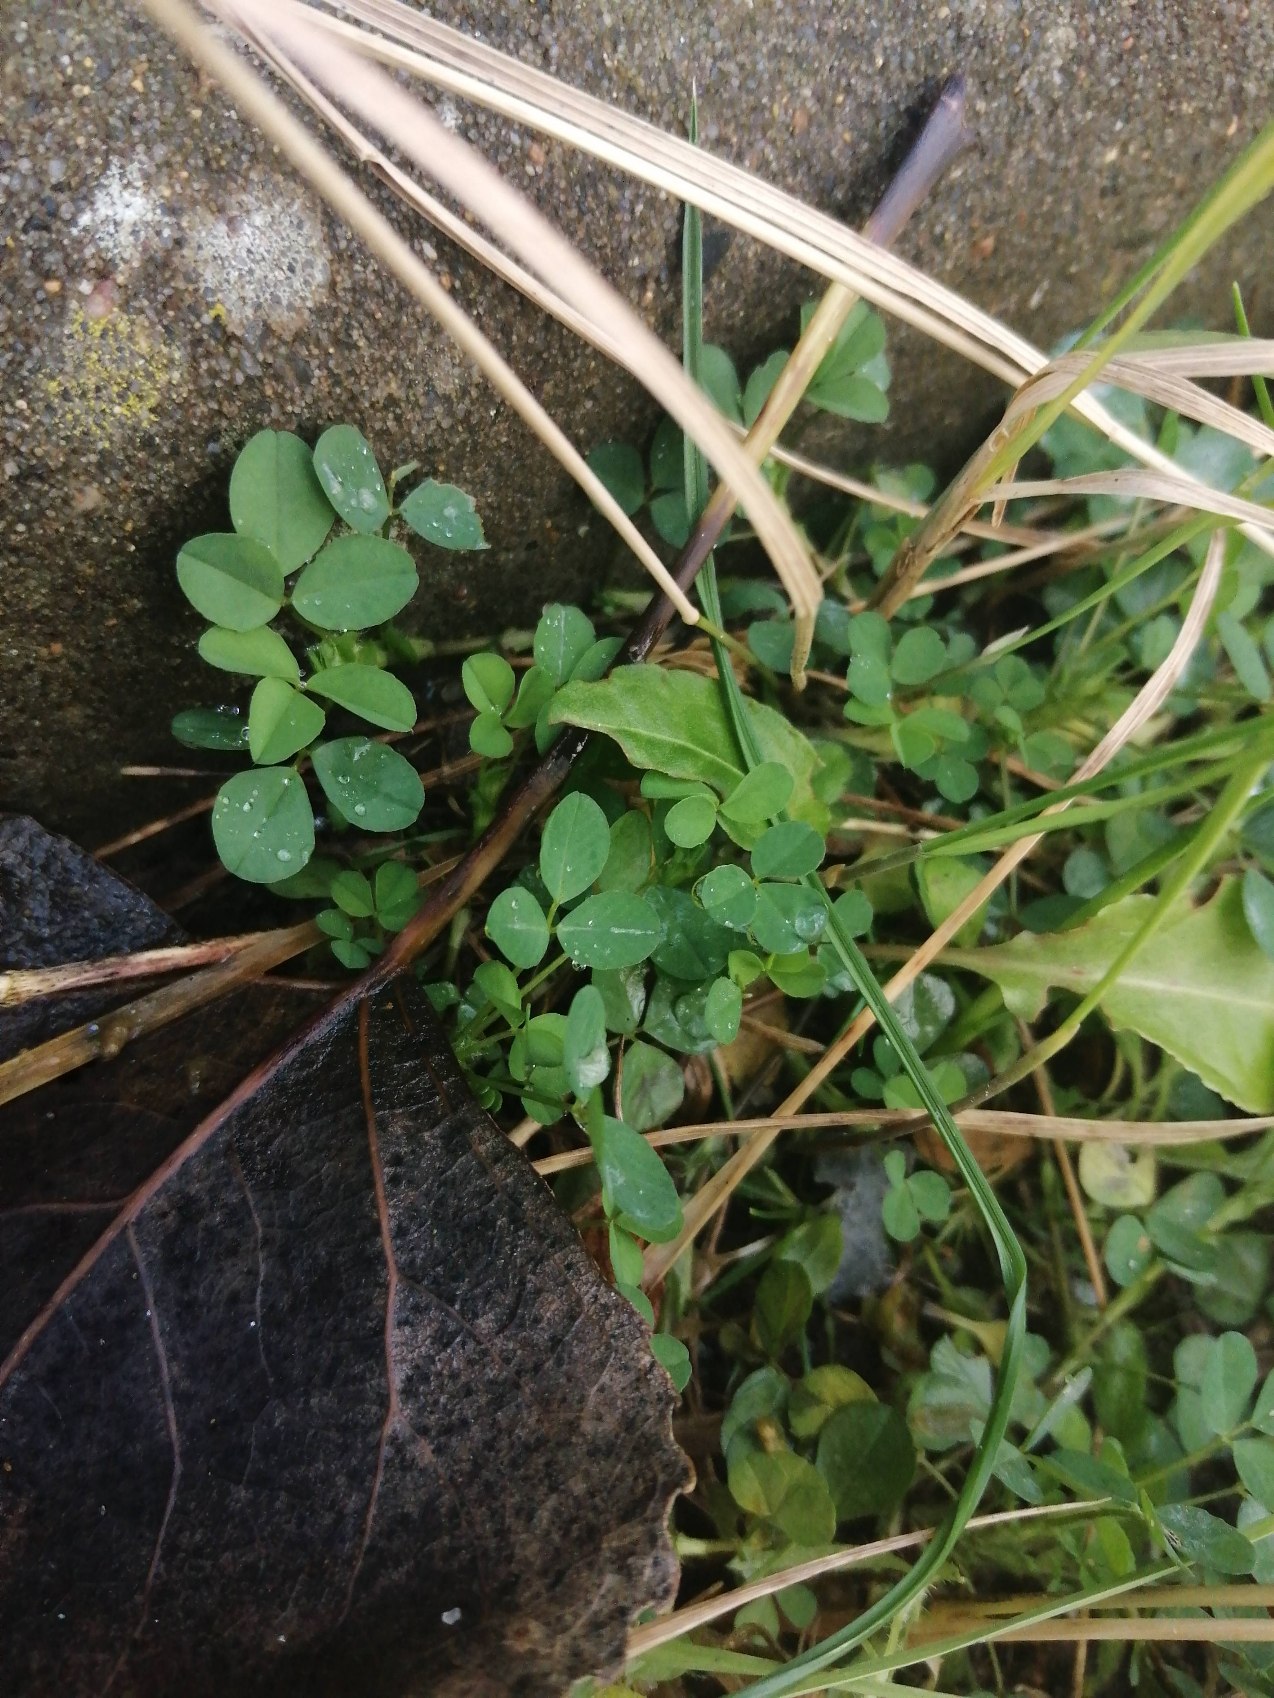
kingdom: Plantae
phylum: Tracheophyta
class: Magnoliopsida
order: Fabales
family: Fabaceae
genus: Medicago
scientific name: Medicago lupulina
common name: Humle-sneglebælg
